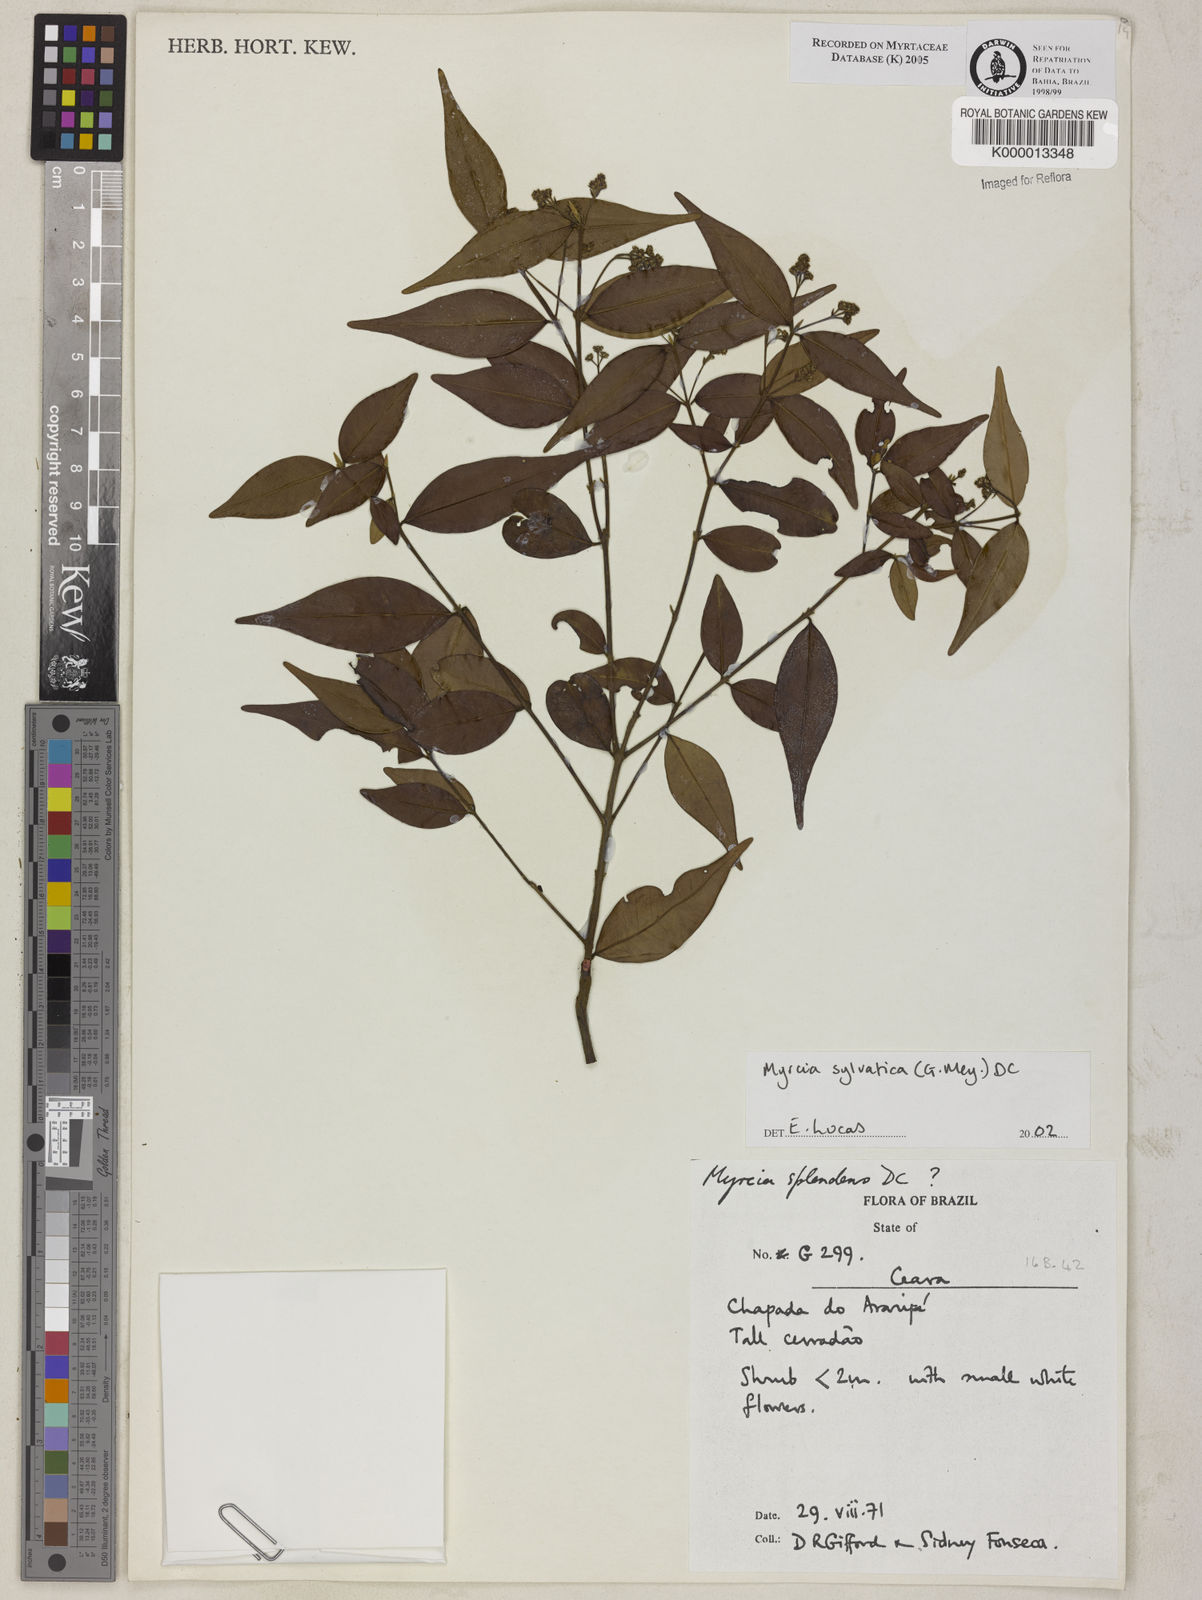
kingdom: Plantae
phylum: Tracheophyta
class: Magnoliopsida
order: Myrtales
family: Myrtaceae
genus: Myrcia
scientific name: Myrcia sylvatica
